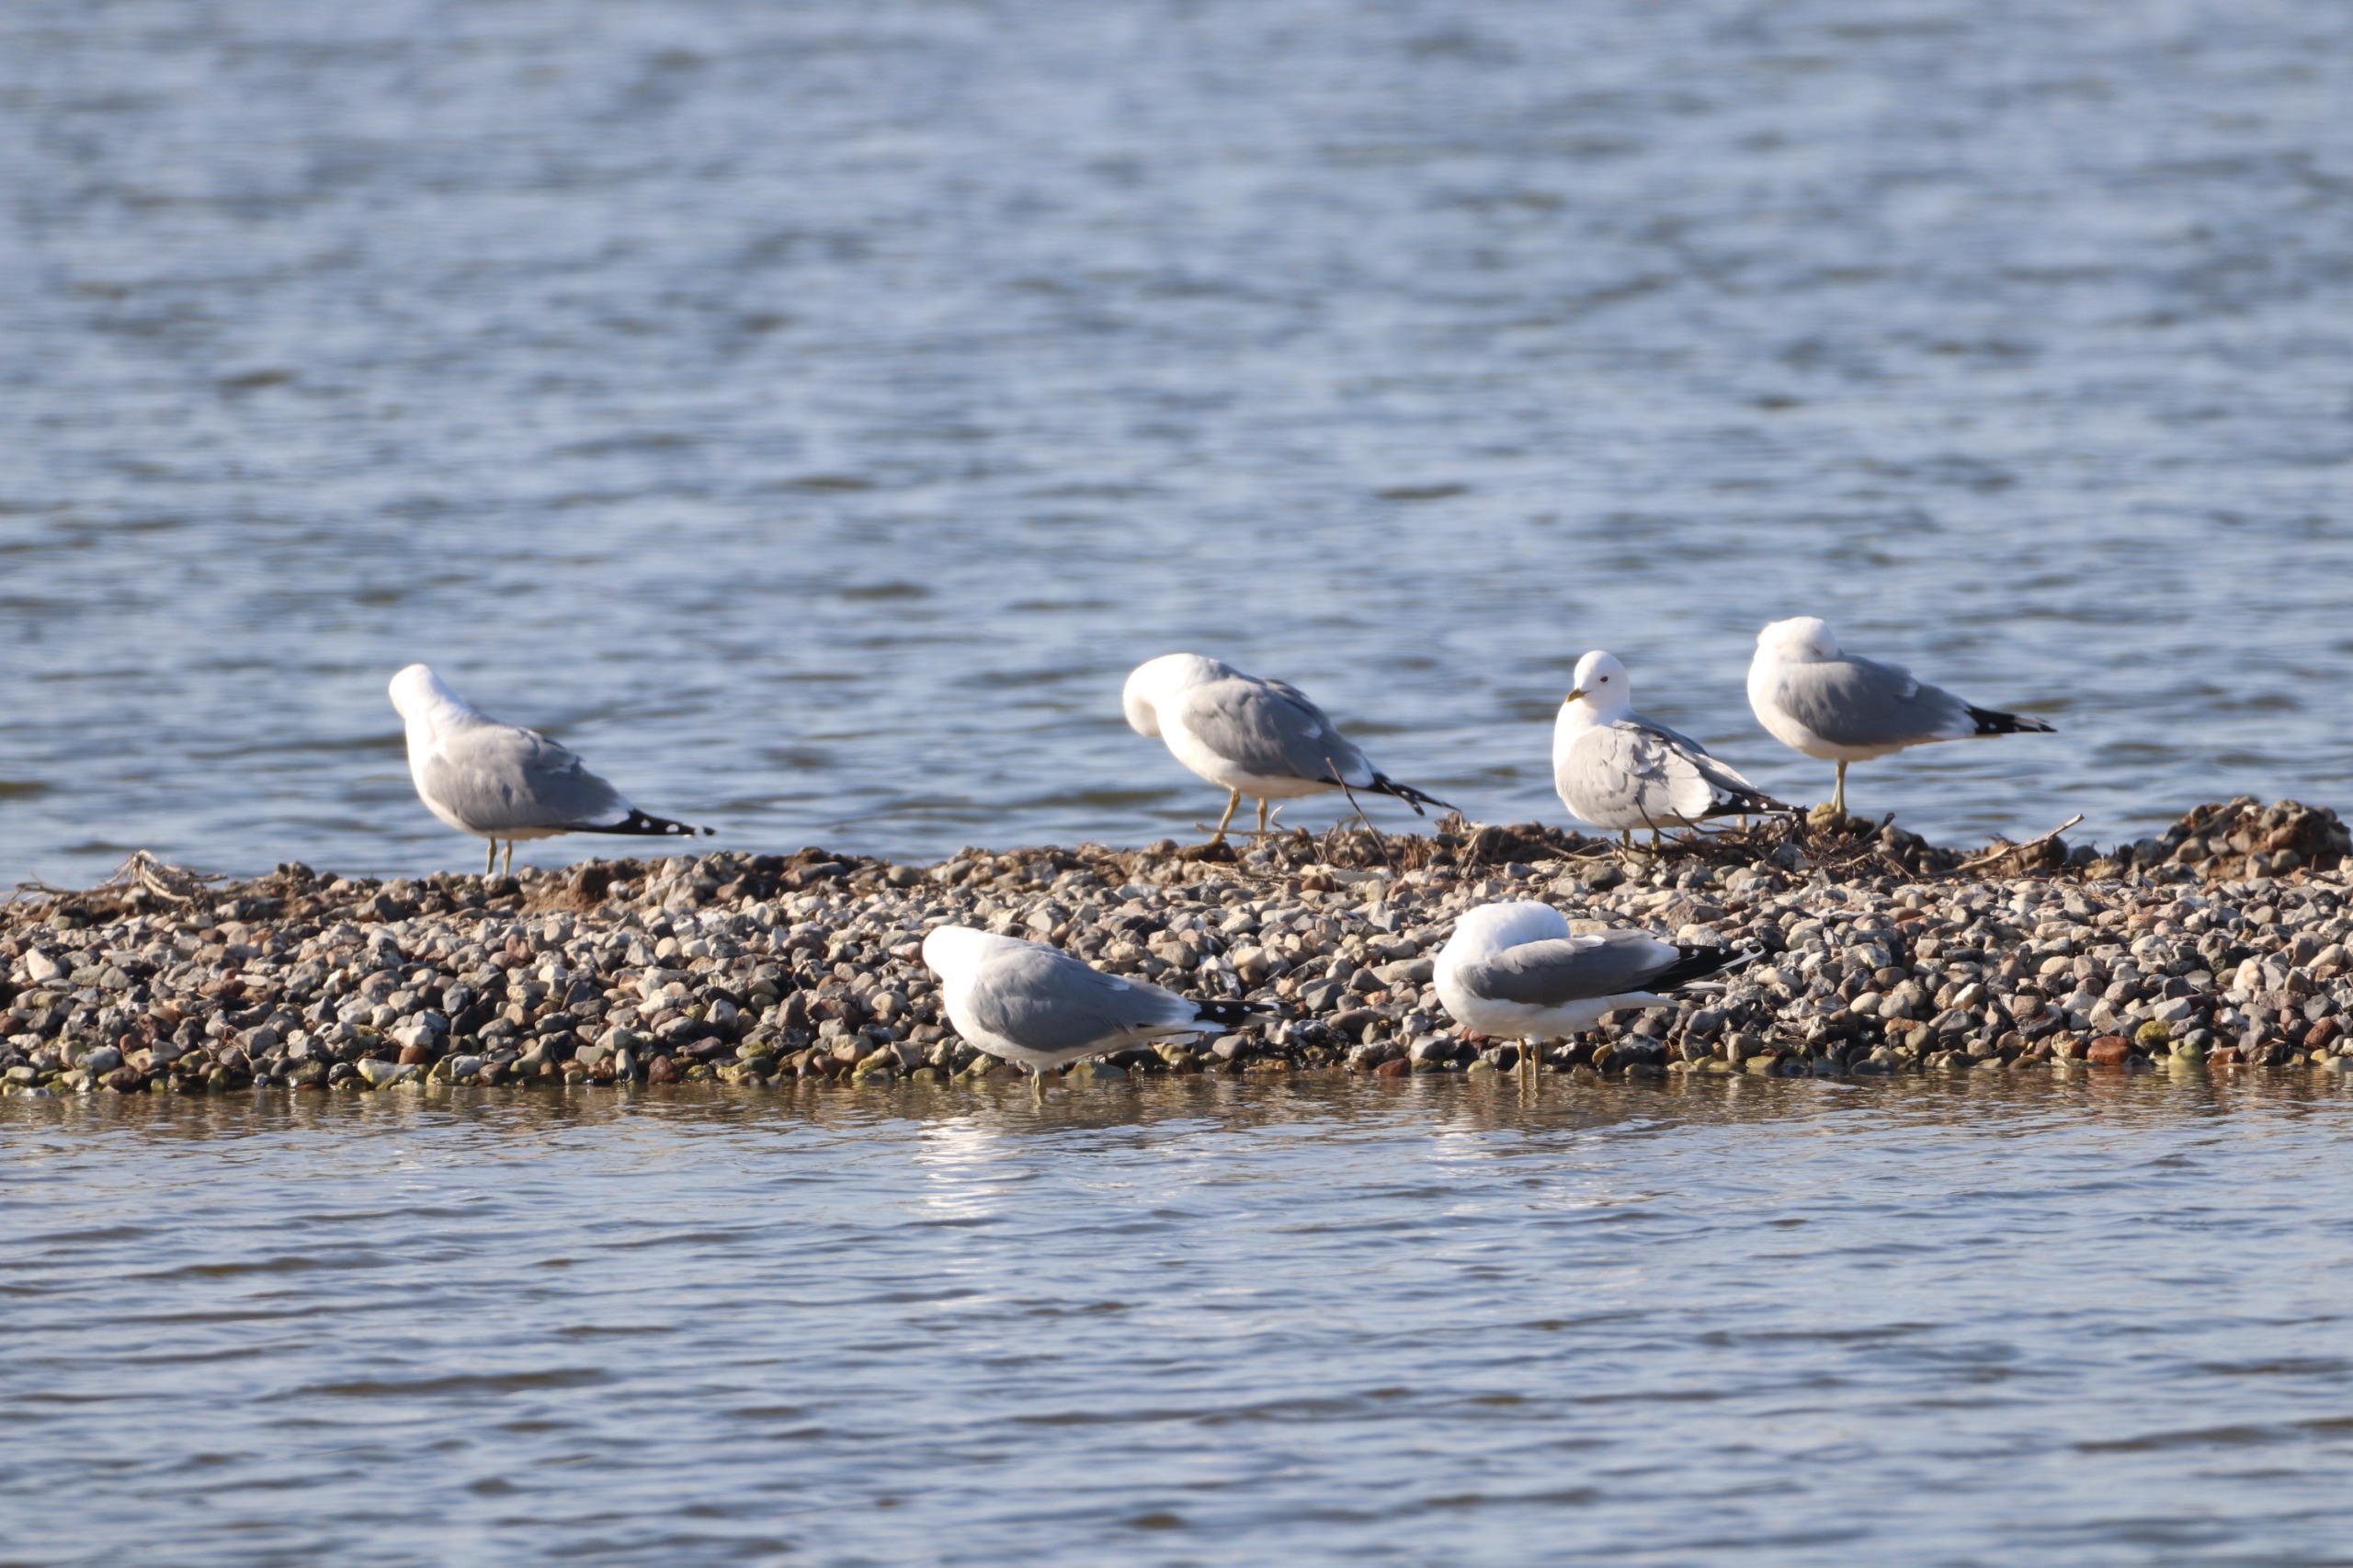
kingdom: Animalia
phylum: Chordata
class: Aves
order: Charadriiformes
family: Laridae
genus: Larus
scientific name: Larus canus
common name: Stormmåge
